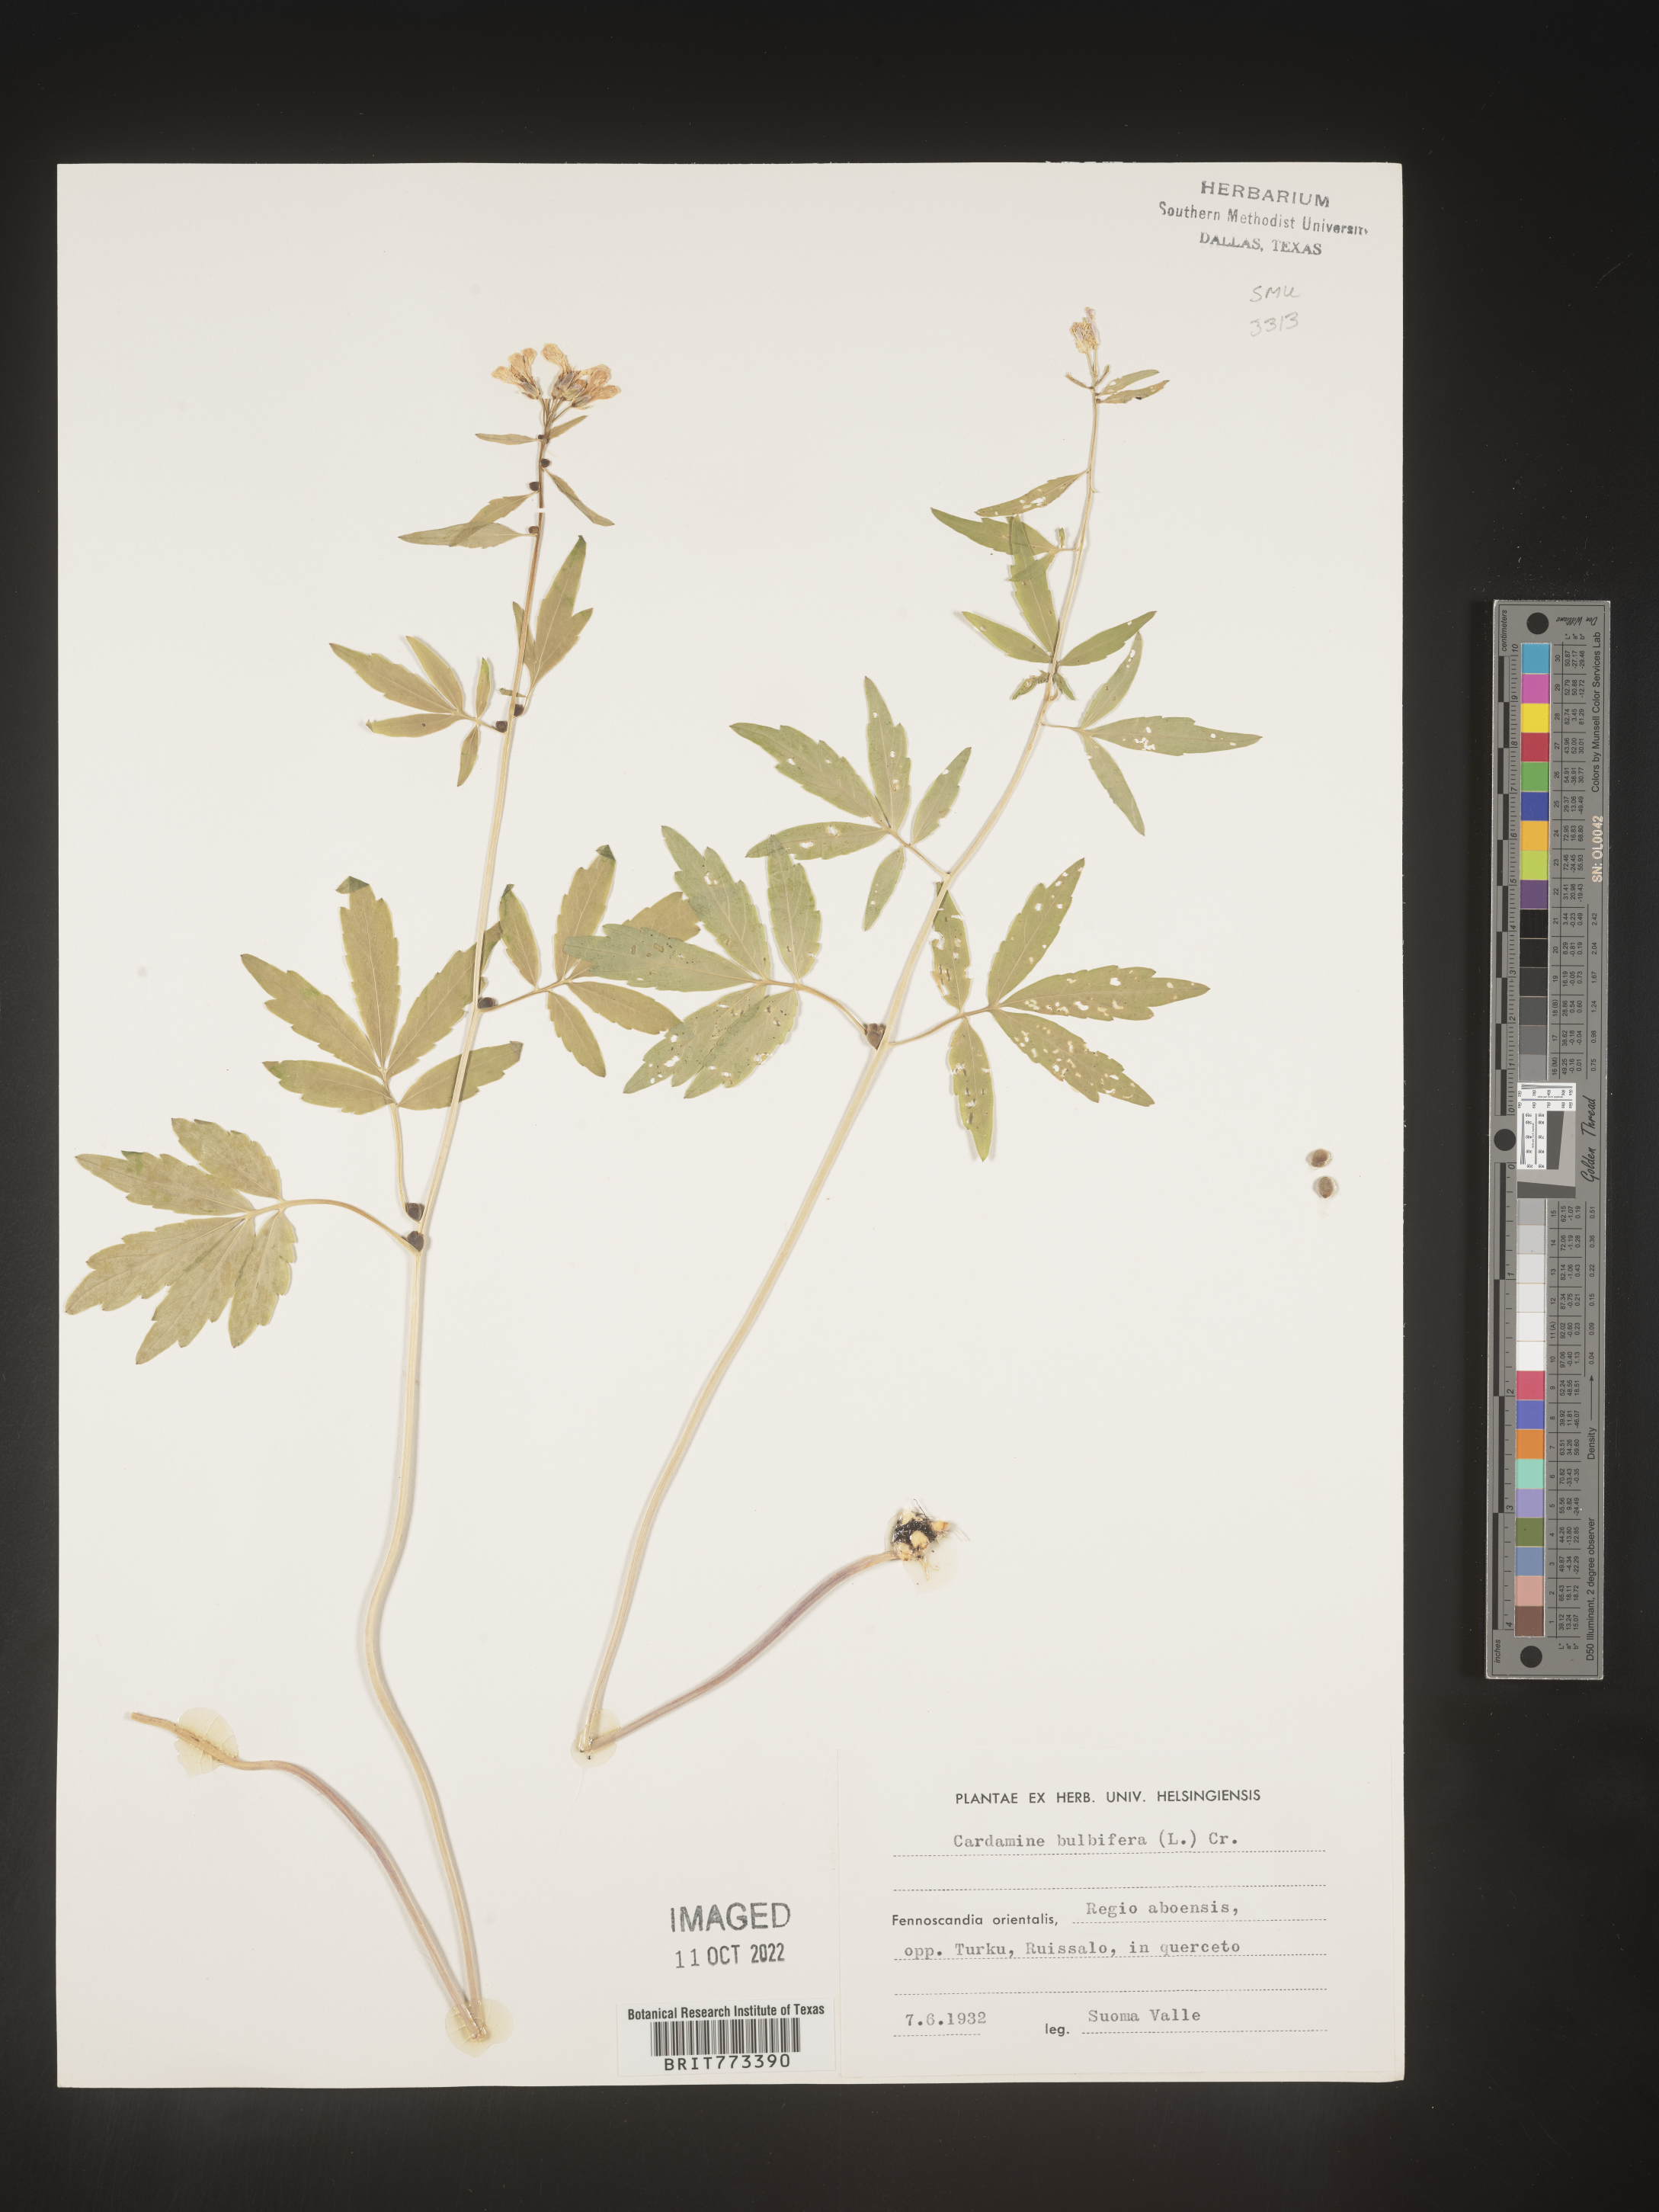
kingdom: Plantae
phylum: Tracheophyta
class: Magnoliopsida
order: Brassicales
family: Brassicaceae
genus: Cardamine
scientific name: Cardamine
